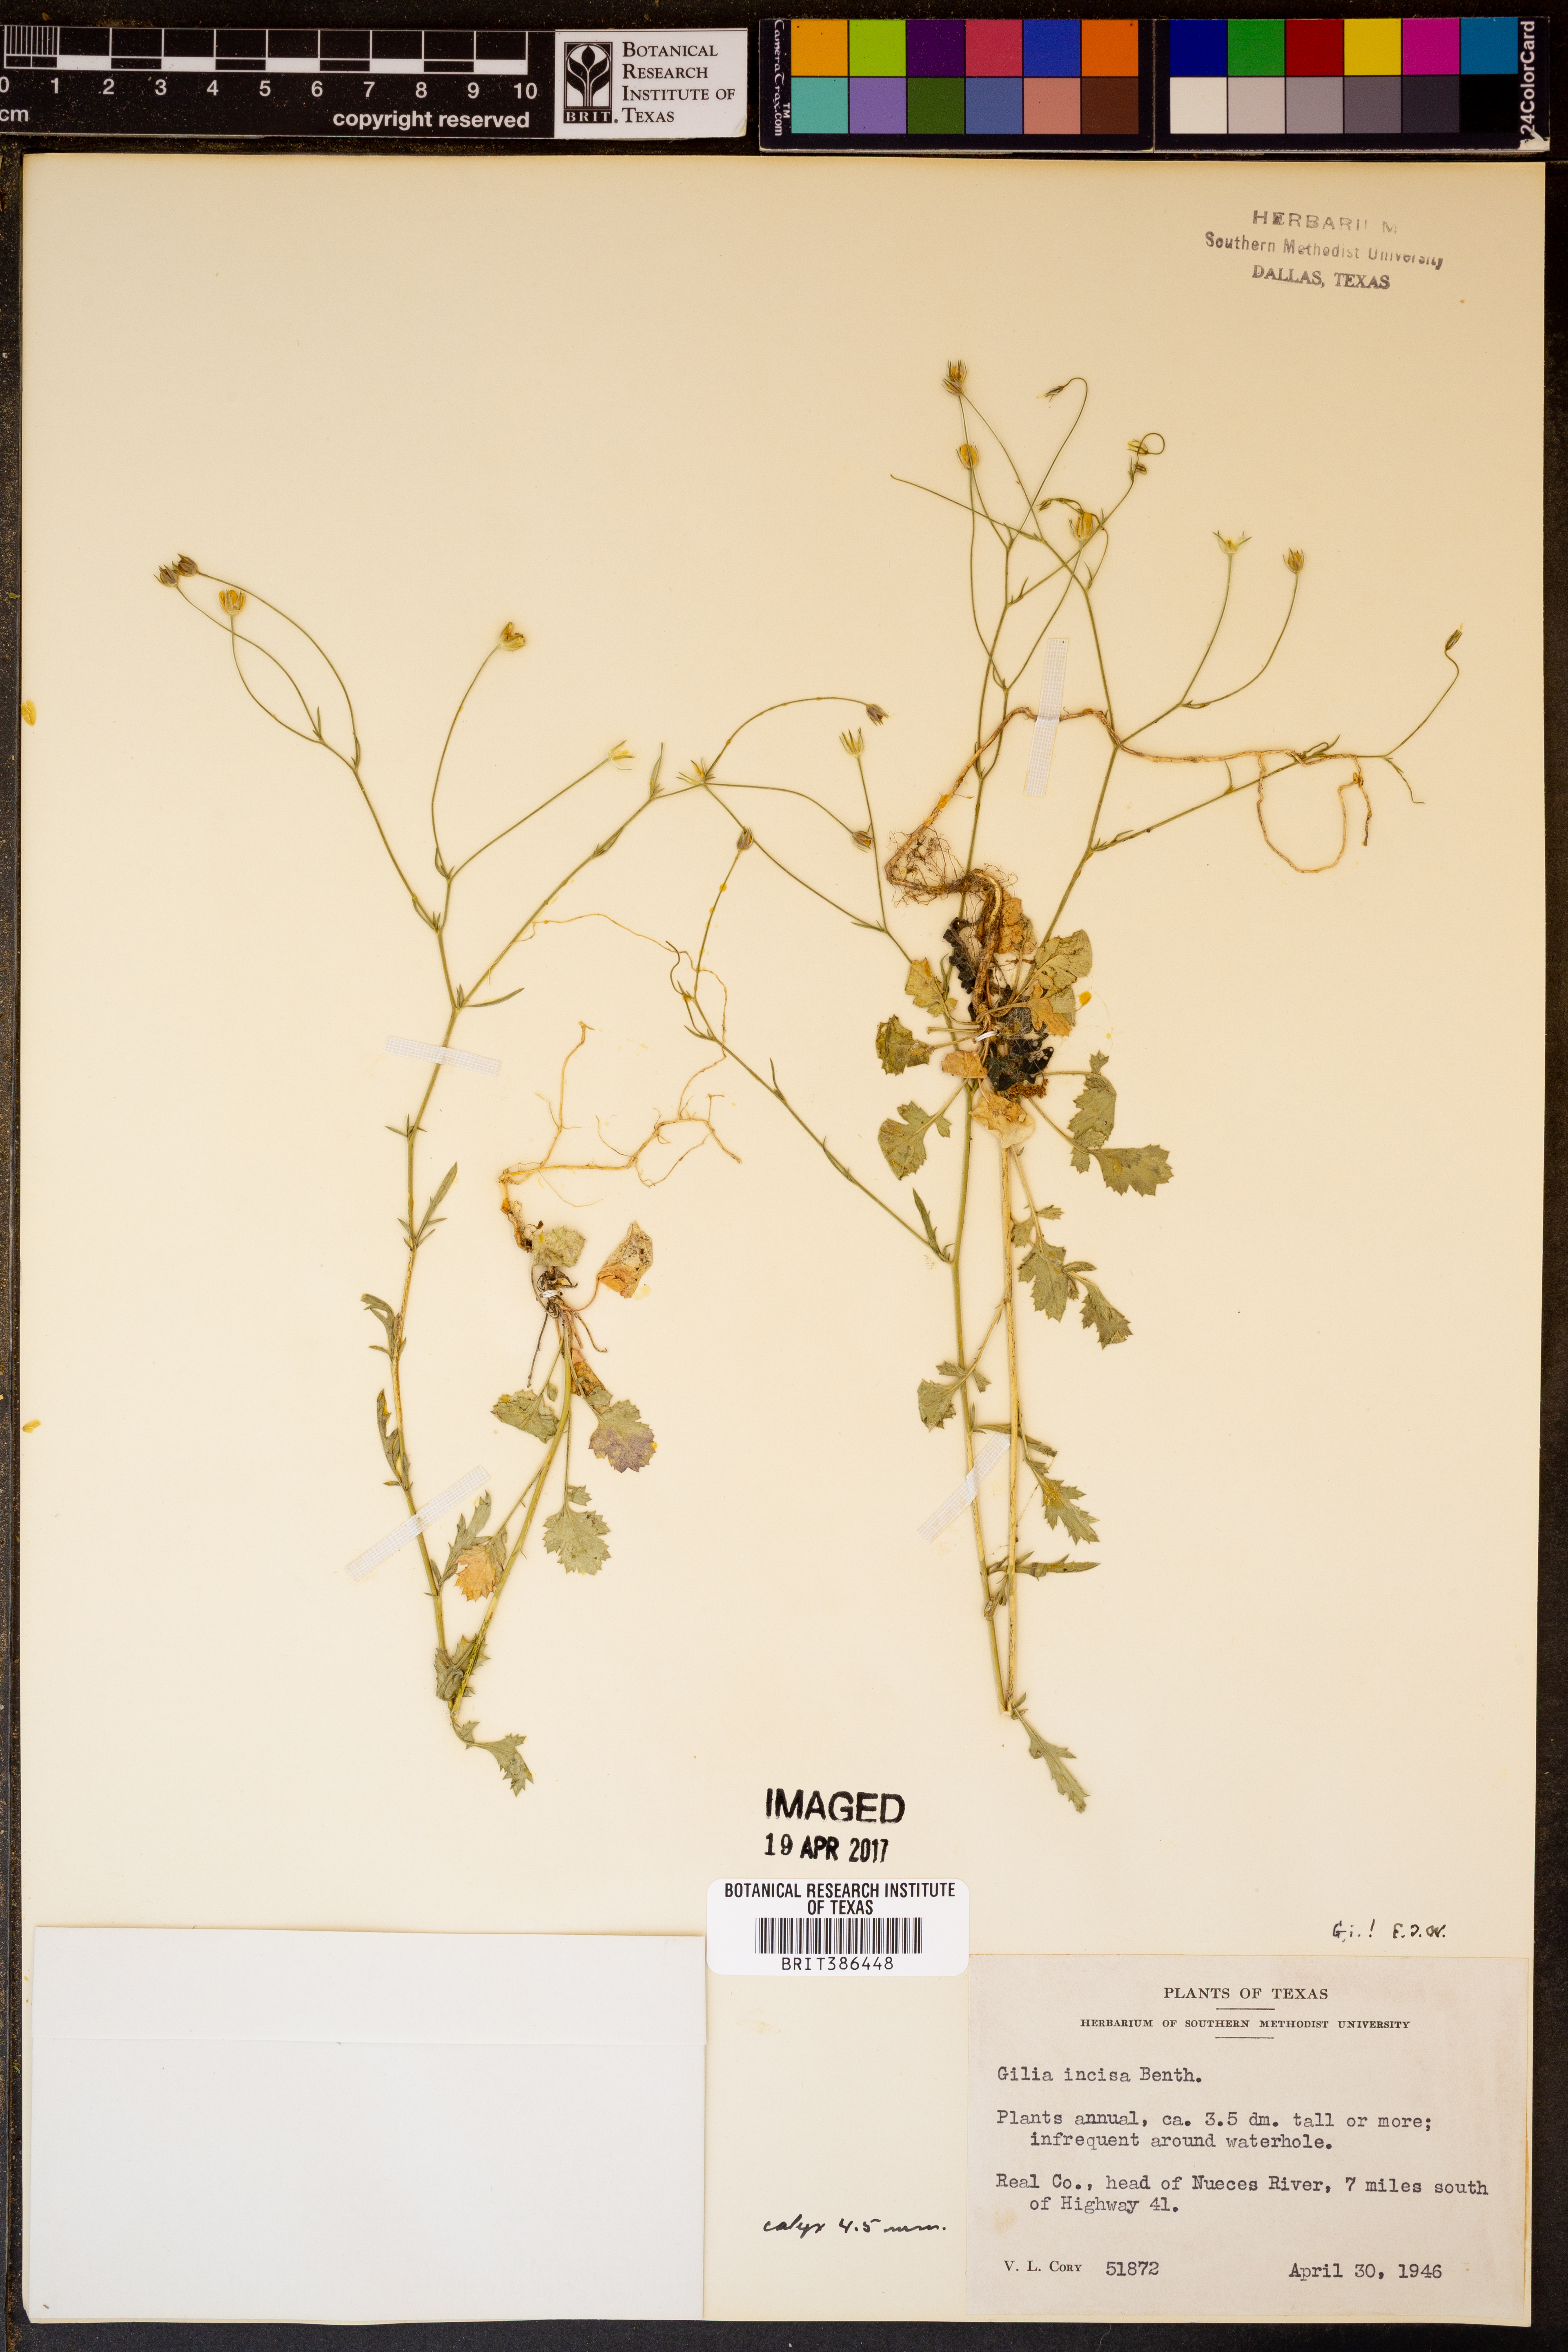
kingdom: Plantae
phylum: Tracheophyta
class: Magnoliopsida
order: Ericales
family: Polemoniaceae
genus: Giliastrum
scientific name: Giliastrum incisum
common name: Splitleaf gilia
